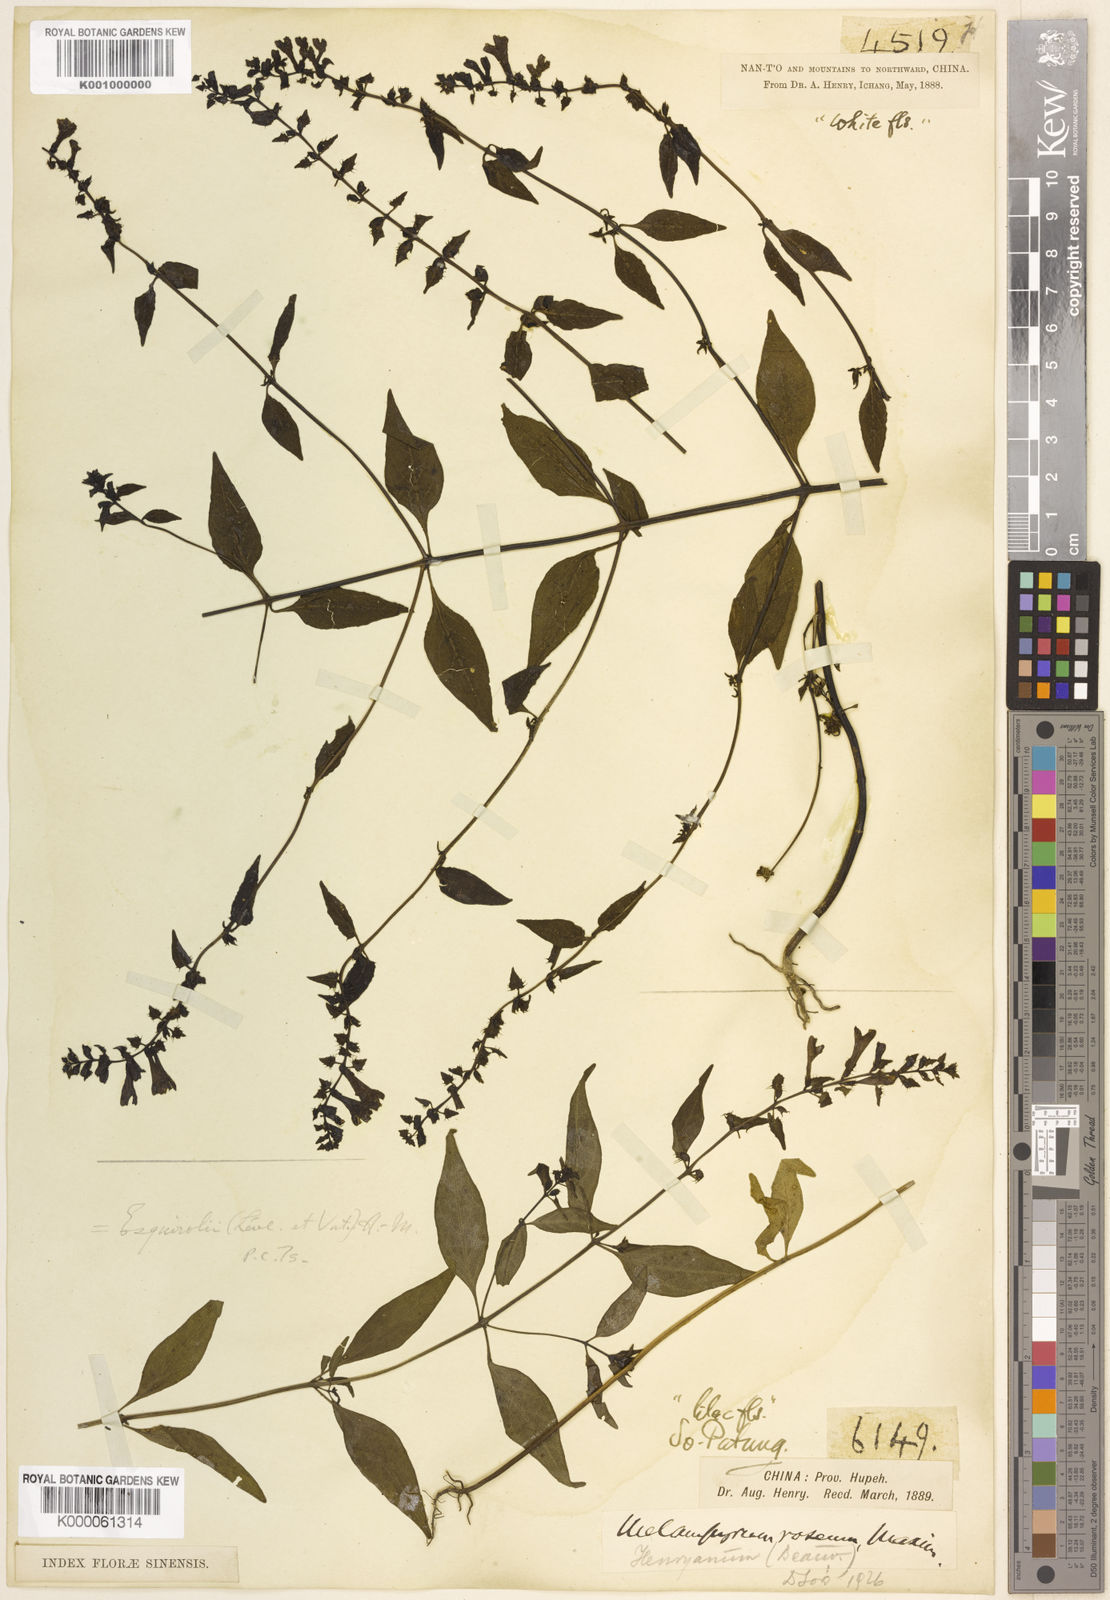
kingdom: Plantae
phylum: Tracheophyta
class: Magnoliopsida
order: Lamiales
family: Orobanchaceae
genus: Melampyrum
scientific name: Melampyrum
